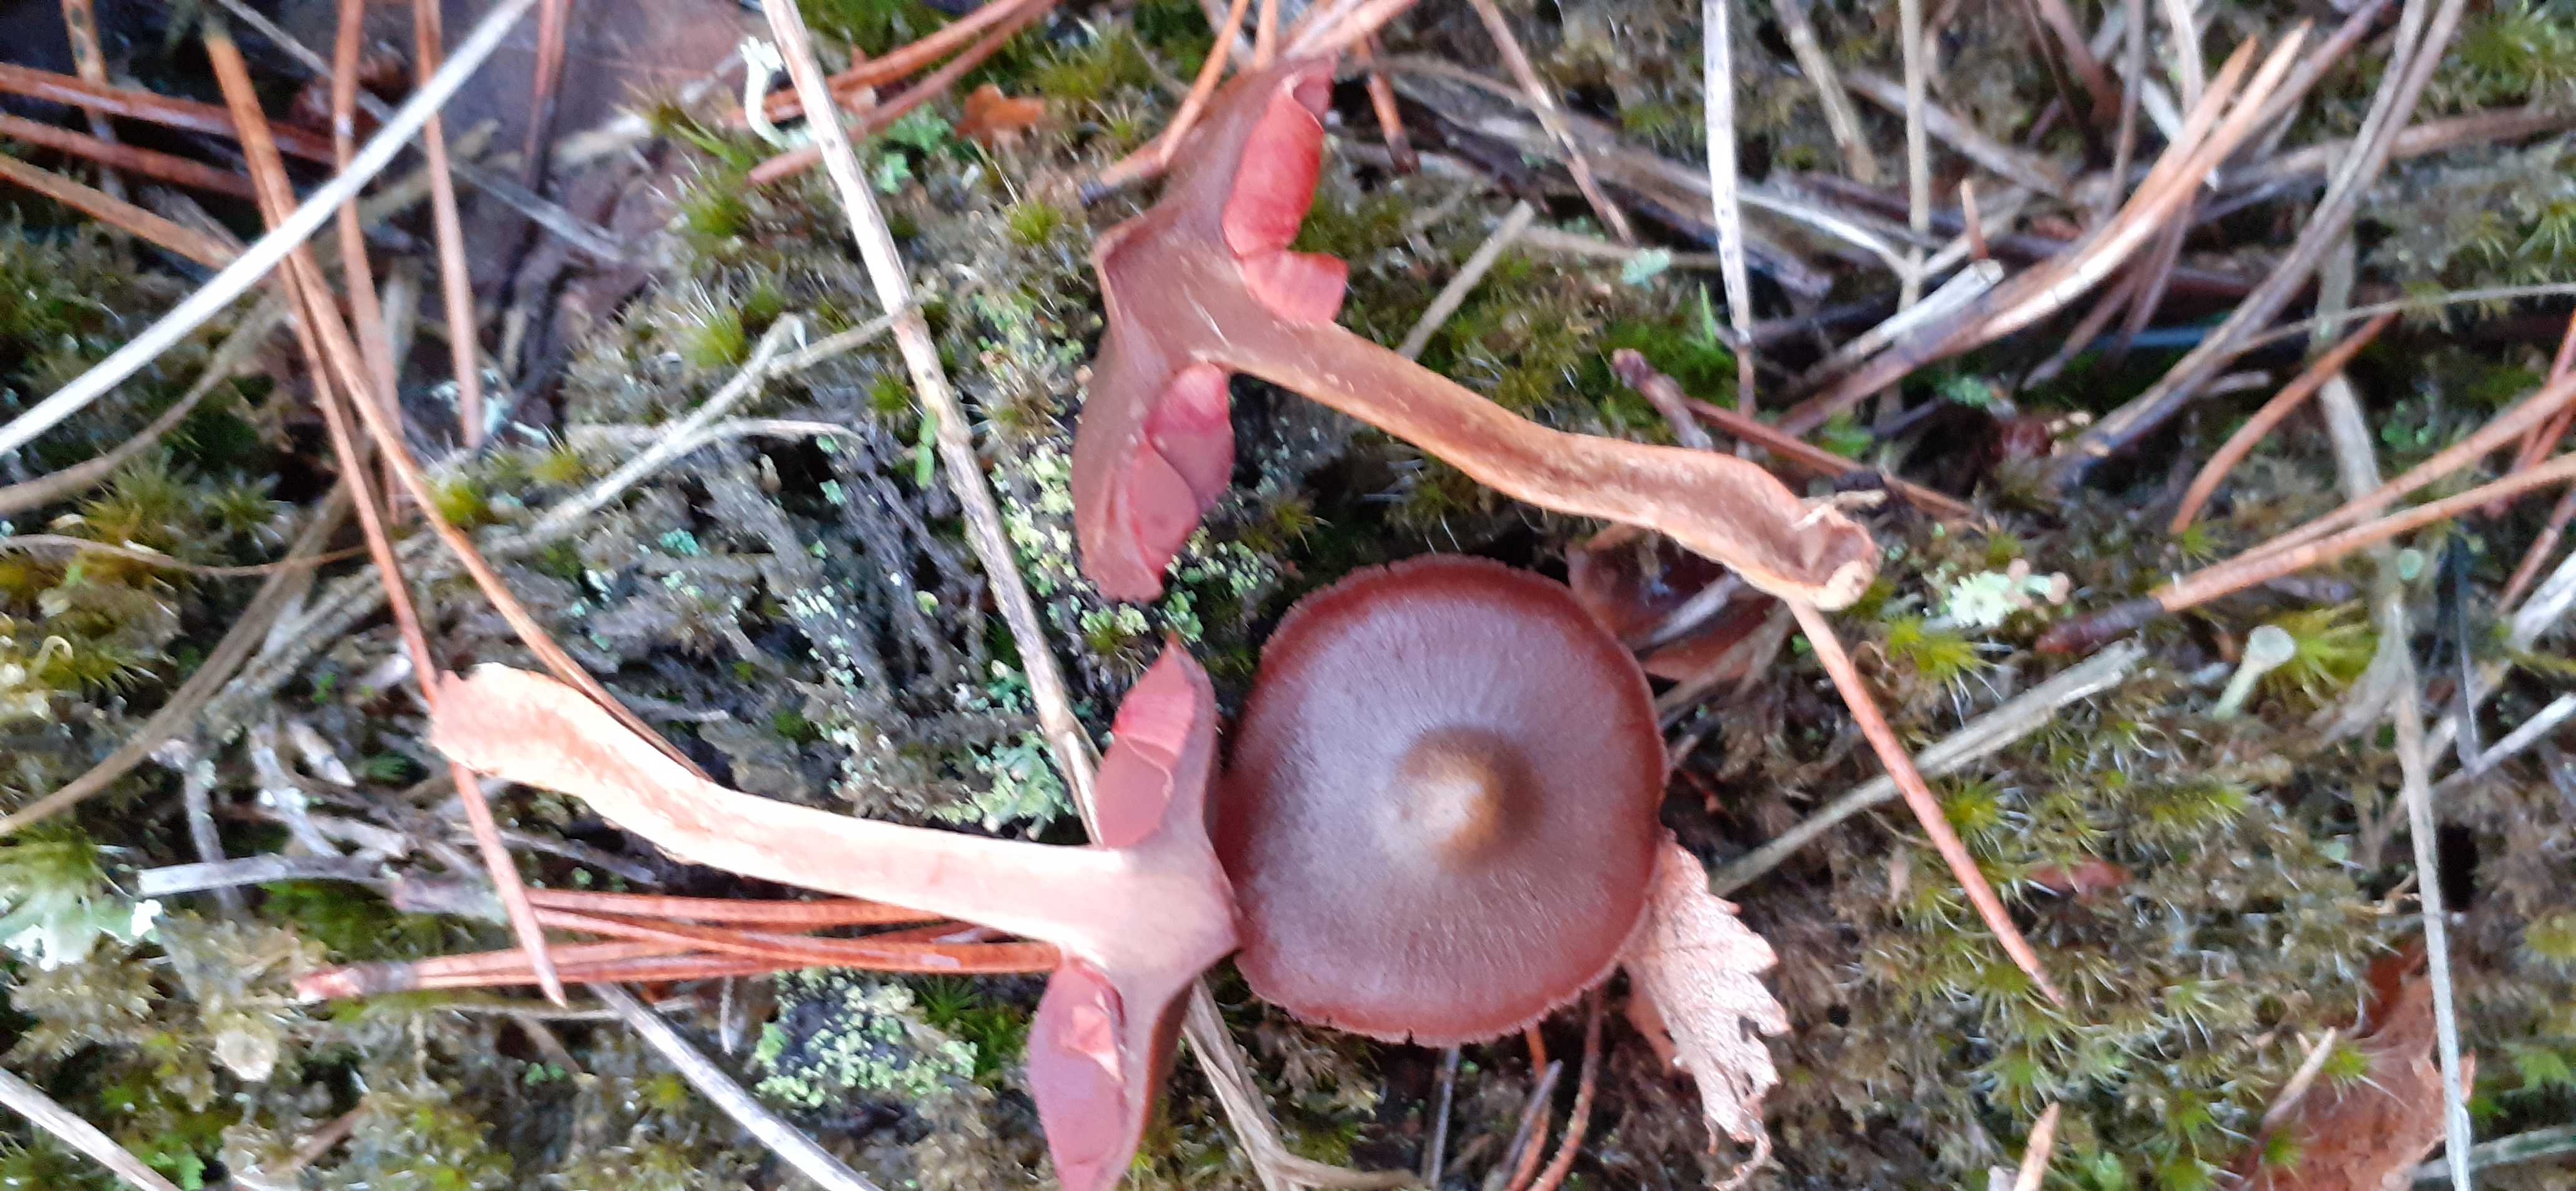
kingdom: Fungi
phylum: Basidiomycota
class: Agaricomycetes
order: Agaricales
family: Cortinariaceae
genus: Cortinarius
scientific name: Cortinarius
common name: cinnoberbladet slørhat
